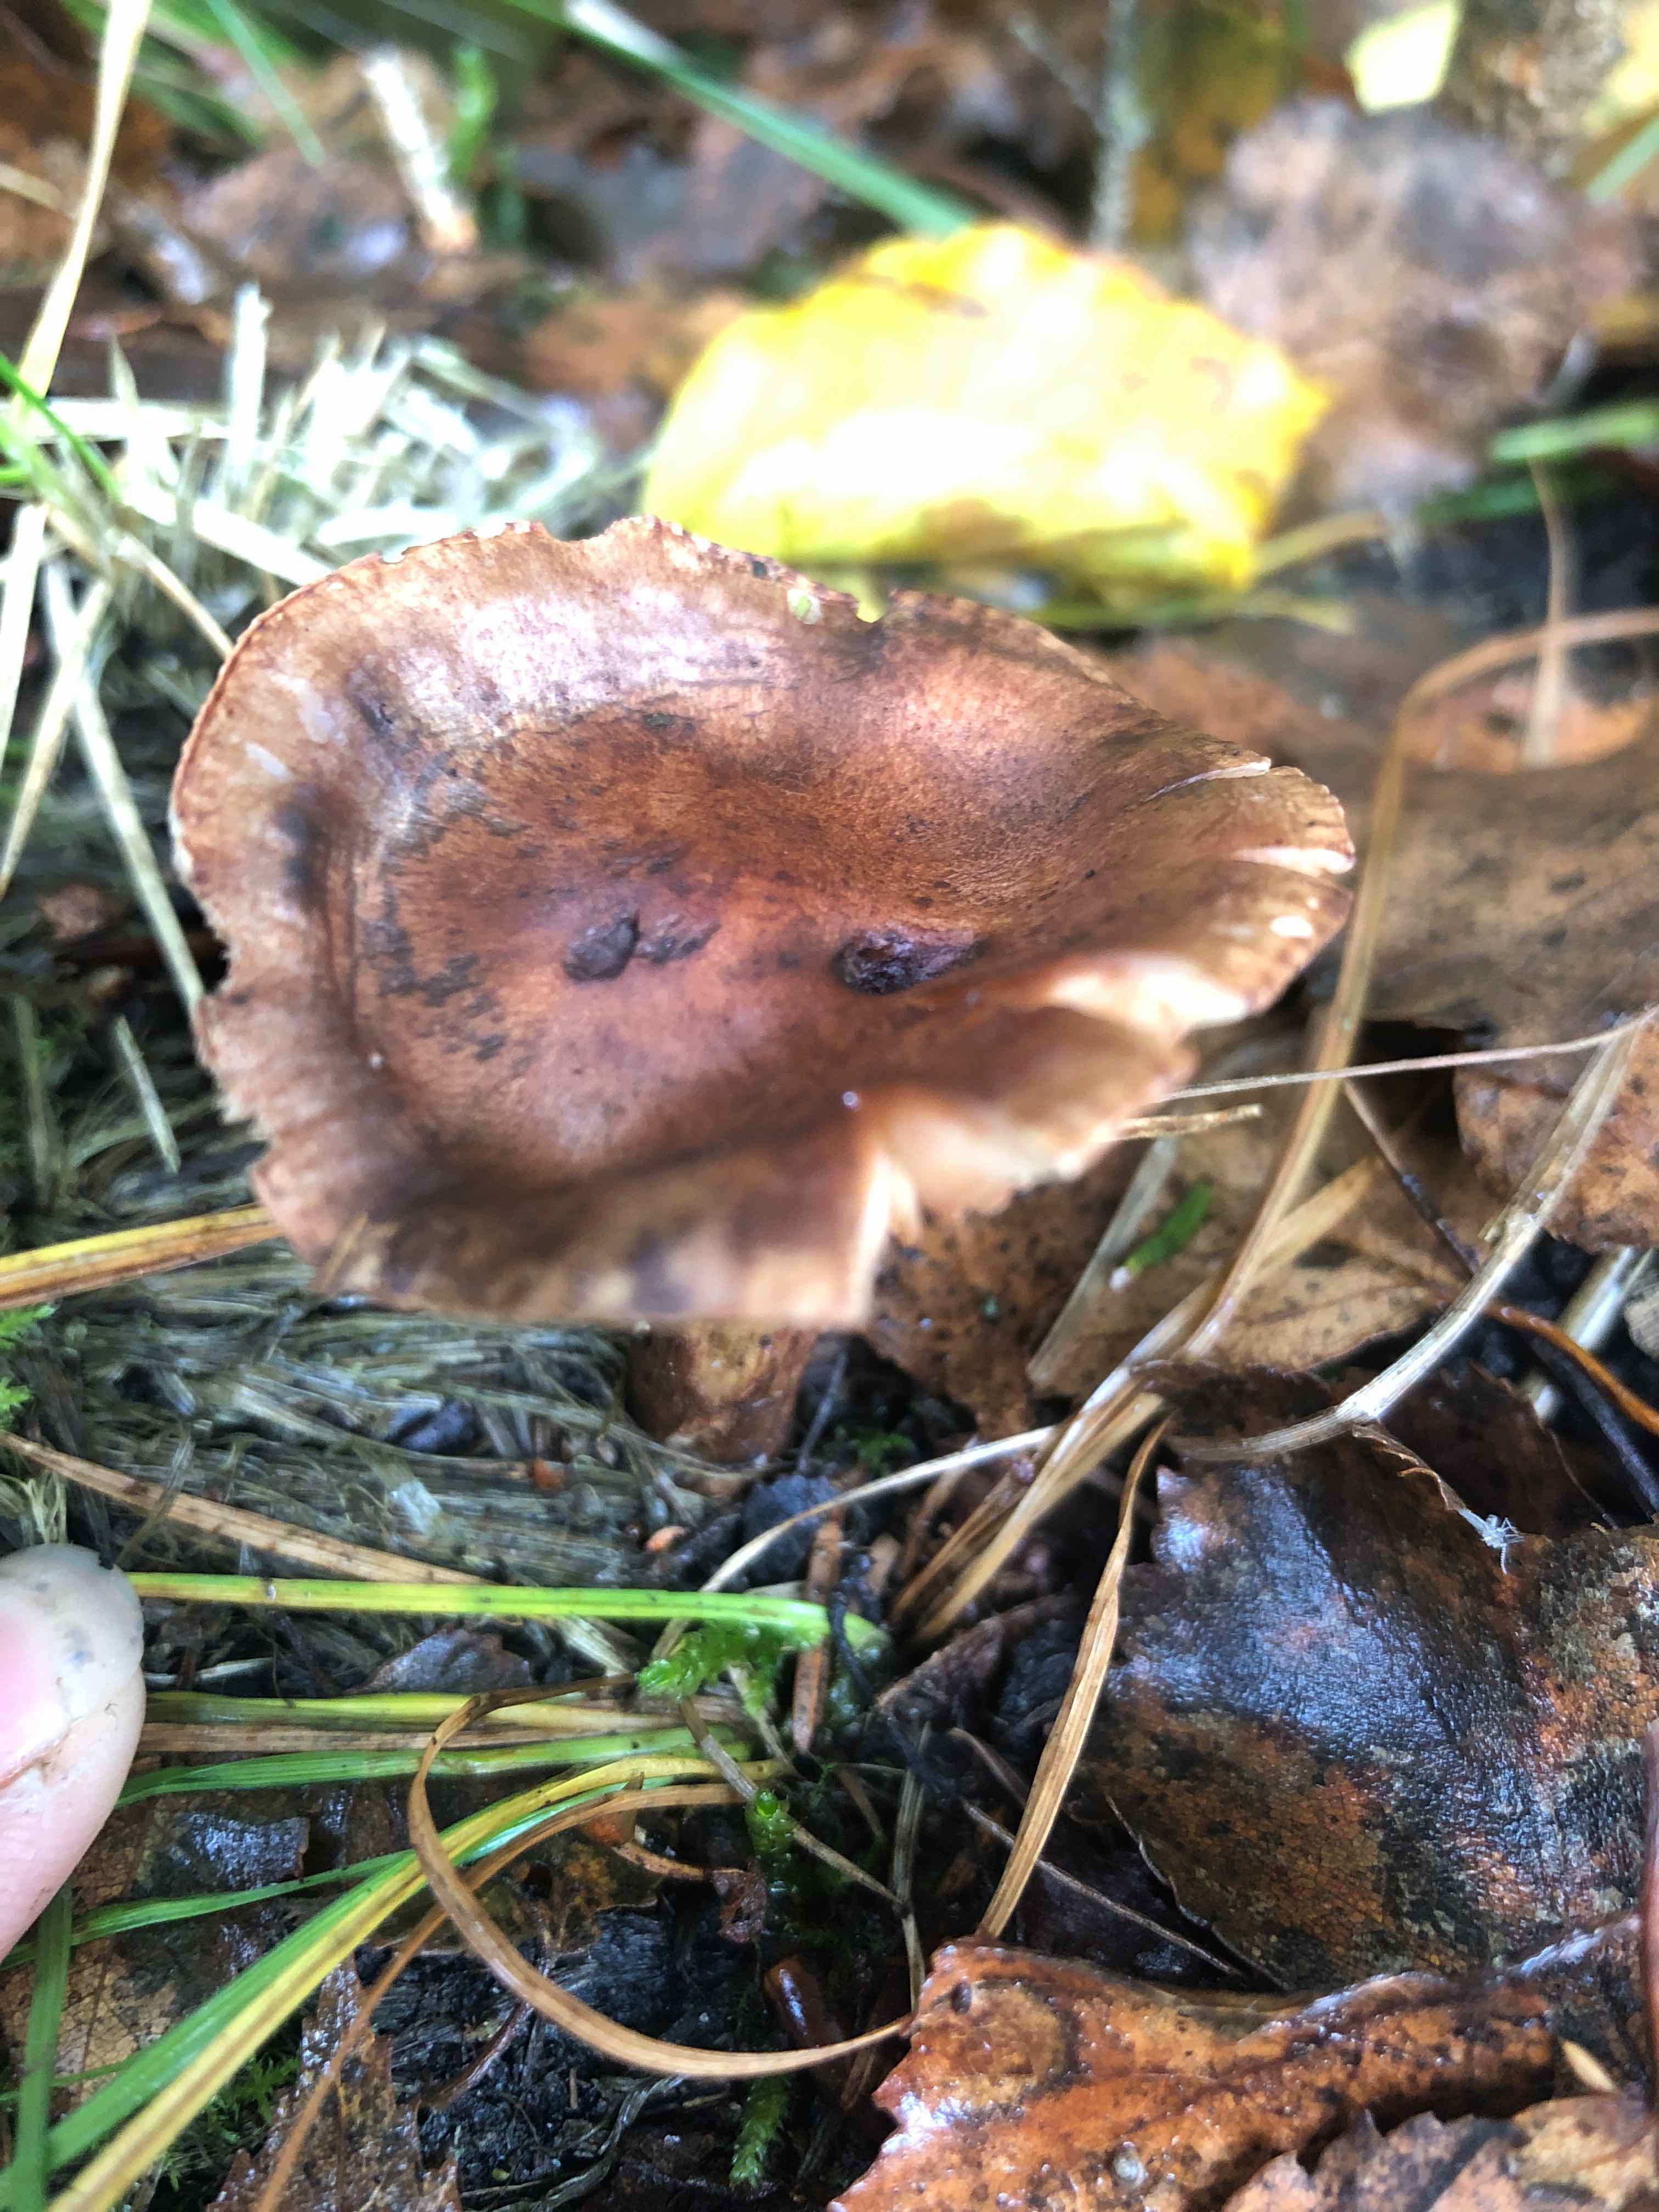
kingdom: Fungi
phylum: Basidiomycota
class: Agaricomycetes
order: Agaricales
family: Tricholomataceae
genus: Tricholoma
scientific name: Tricholoma
